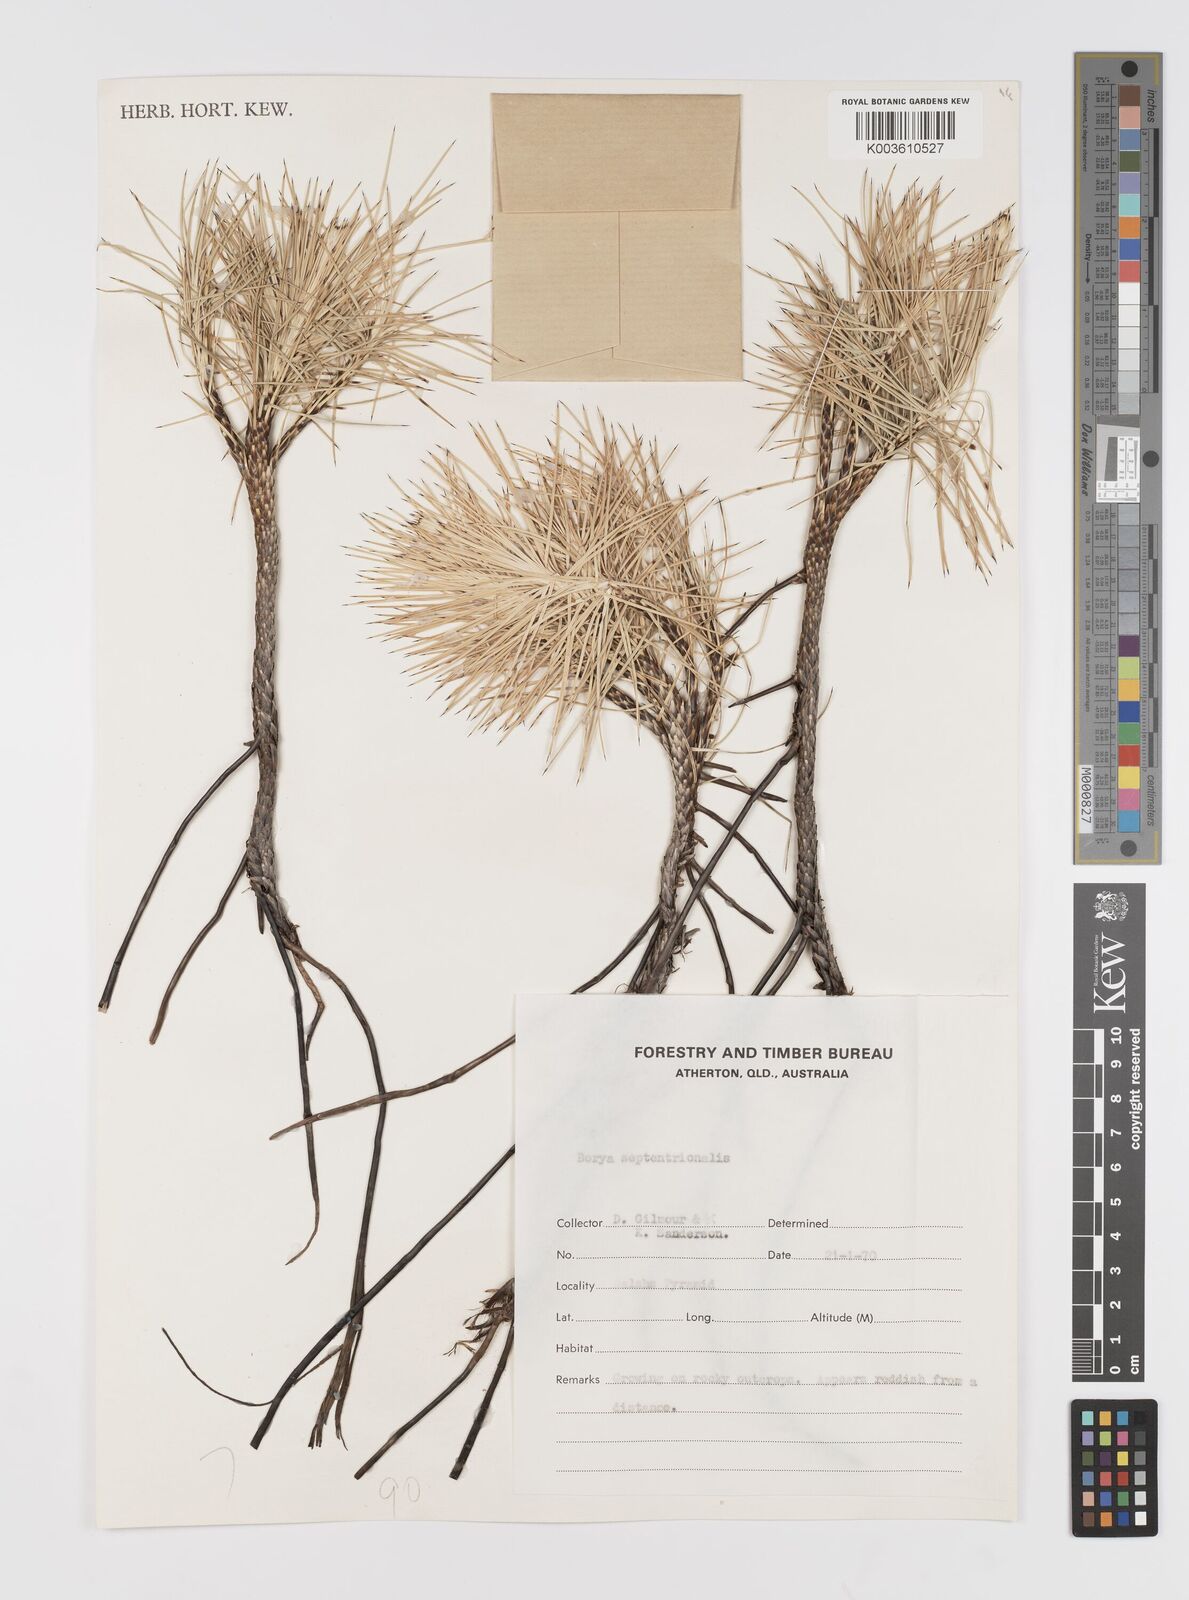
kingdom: Plantae
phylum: Tracheophyta
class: Liliopsida
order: Asparagales
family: Boryaceae
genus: Borya
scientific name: Borya septentrionalis
